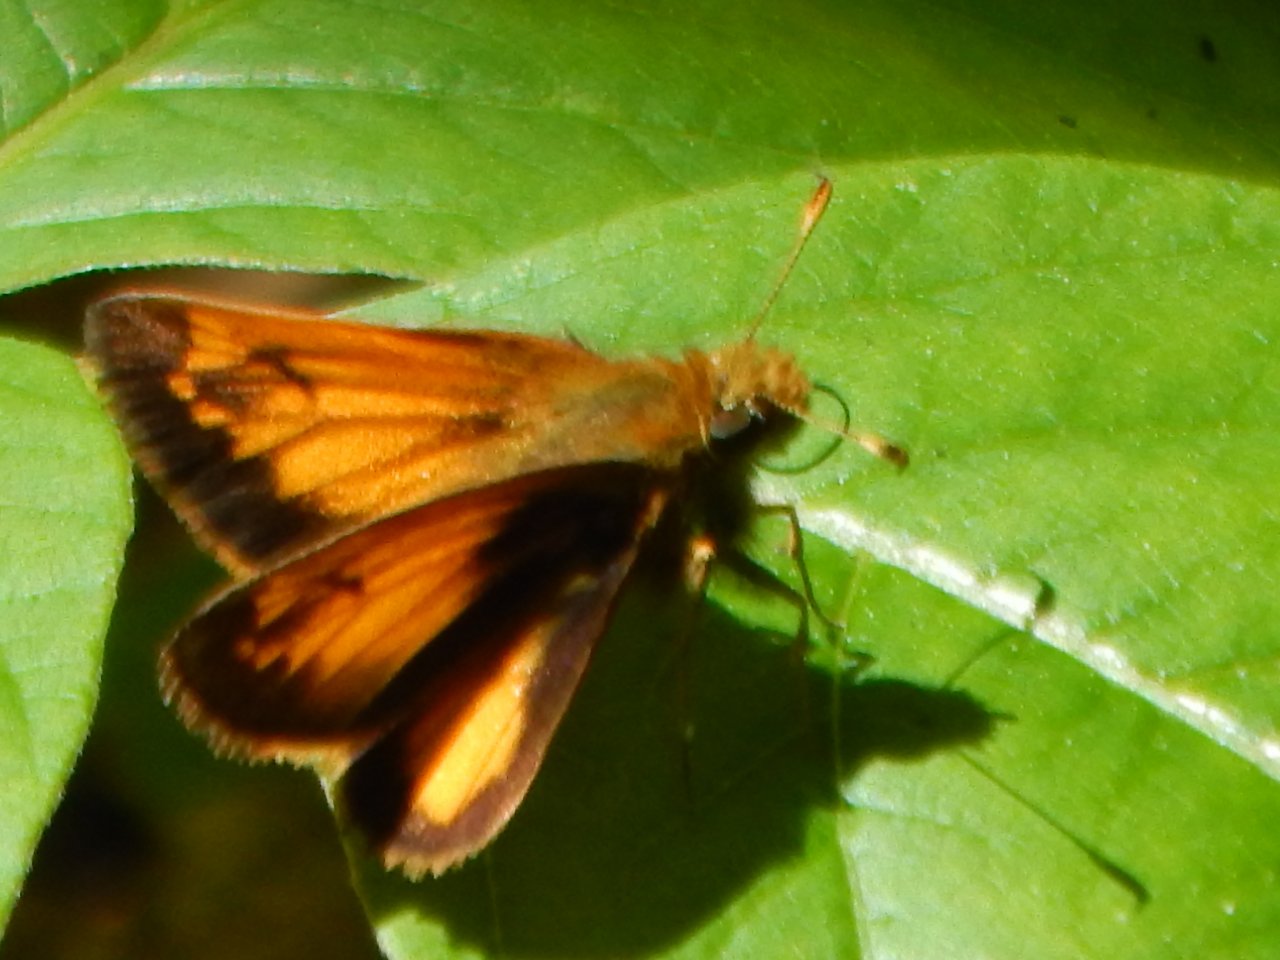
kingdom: Animalia
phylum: Arthropoda
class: Insecta
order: Lepidoptera
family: Hesperiidae
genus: Lon
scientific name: Lon hobomok
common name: Hobomok Skipper
